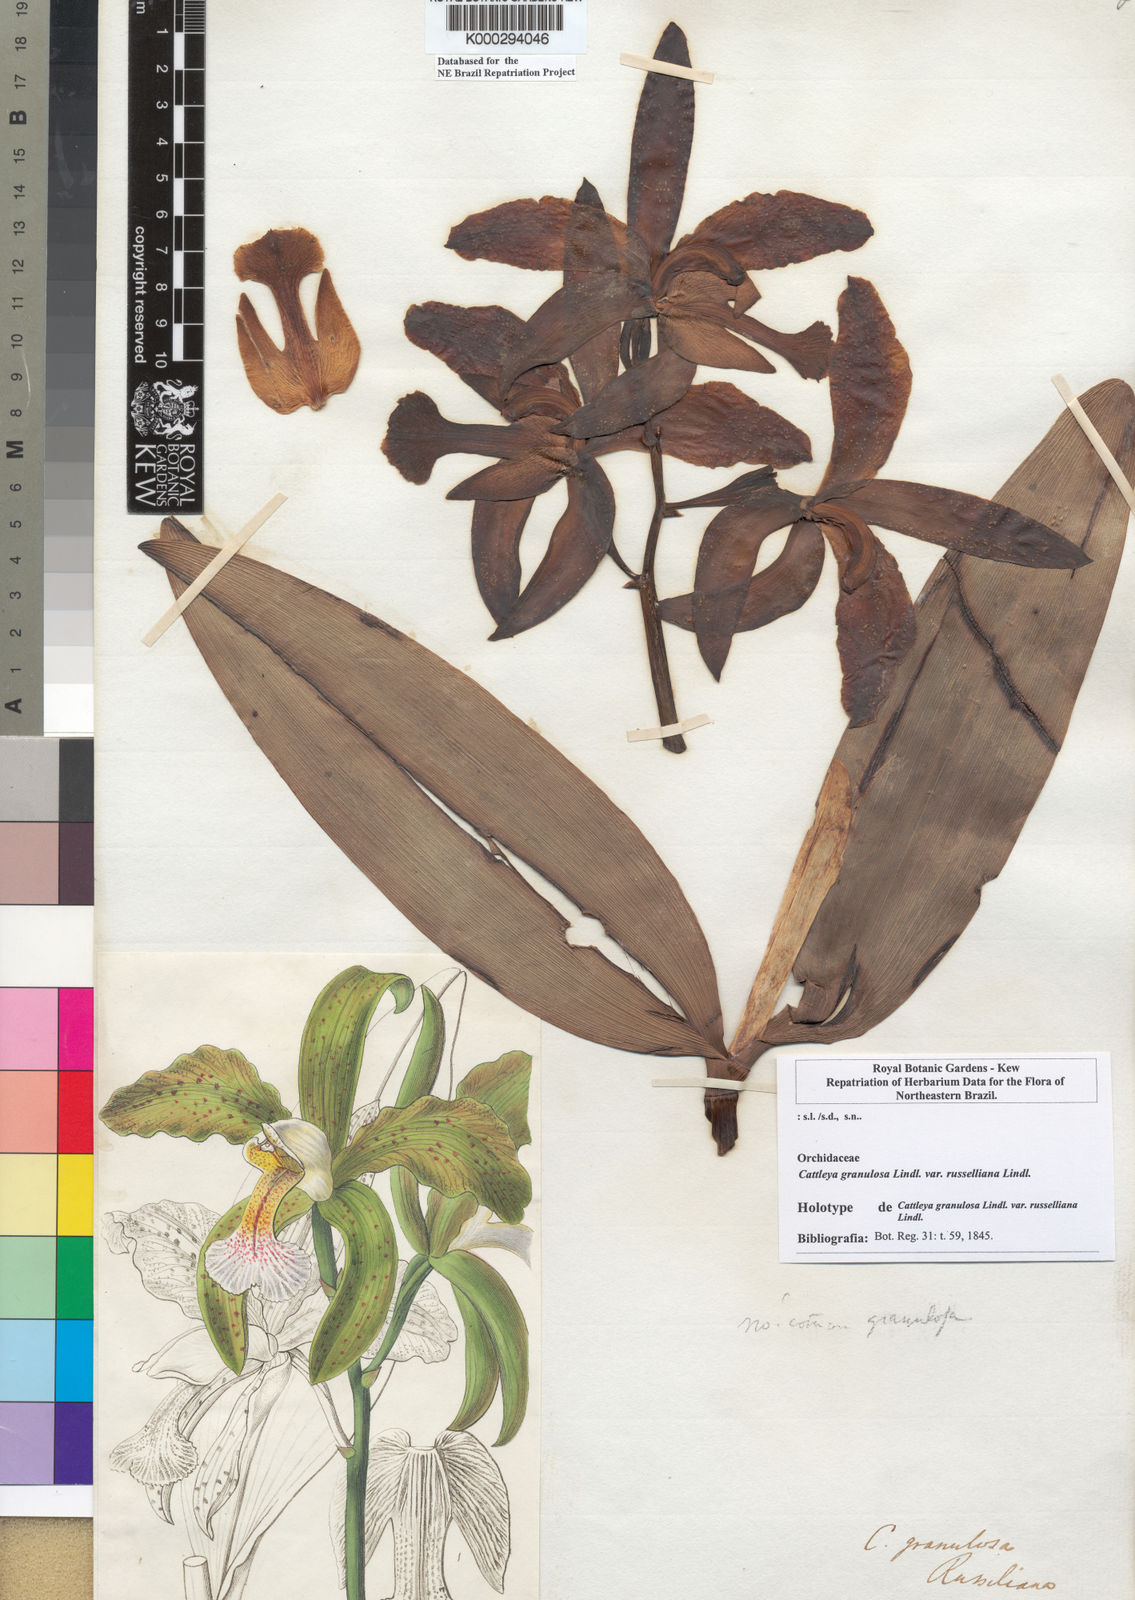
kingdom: Plantae
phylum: Tracheophyta
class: Liliopsida
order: Asparagales
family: Orchidaceae
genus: Cattleya
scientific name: Cattleya granulosa
